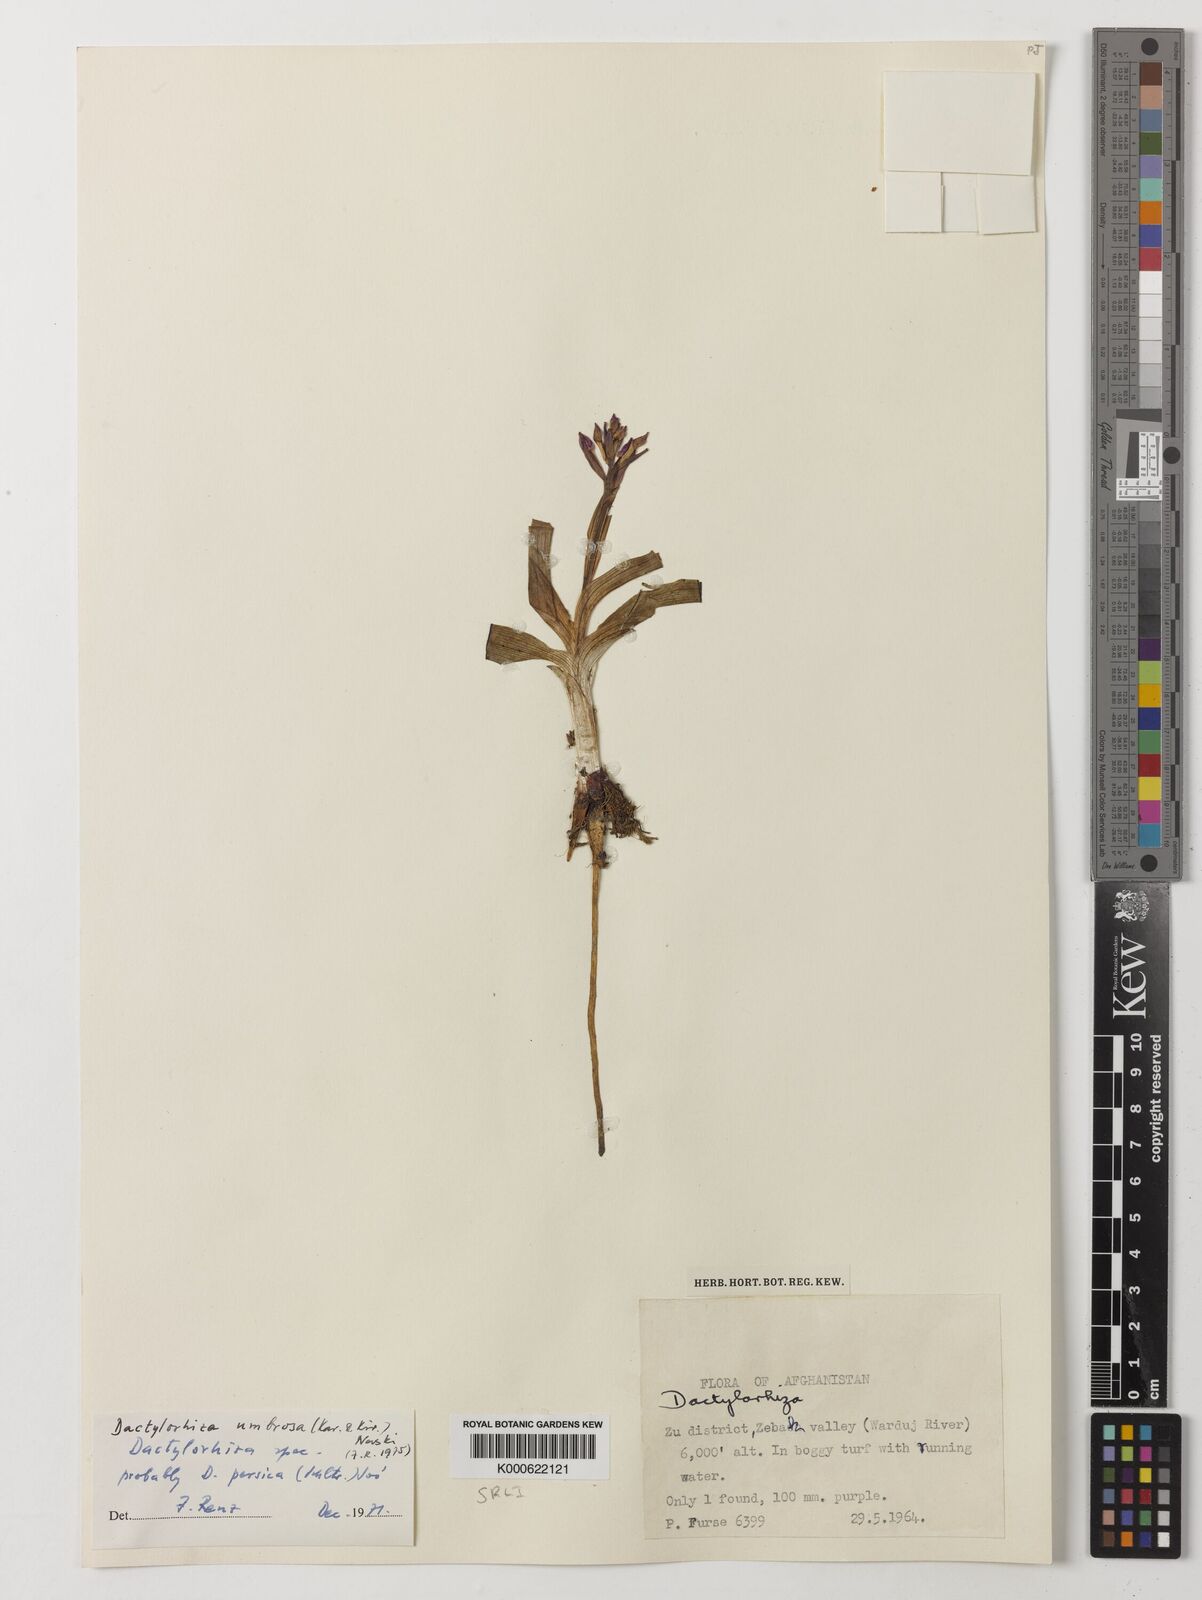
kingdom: Plantae
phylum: Tracheophyta
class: Liliopsida
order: Asparagales
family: Orchidaceae
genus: Dactylorhiza
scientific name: Dactylorhiza
